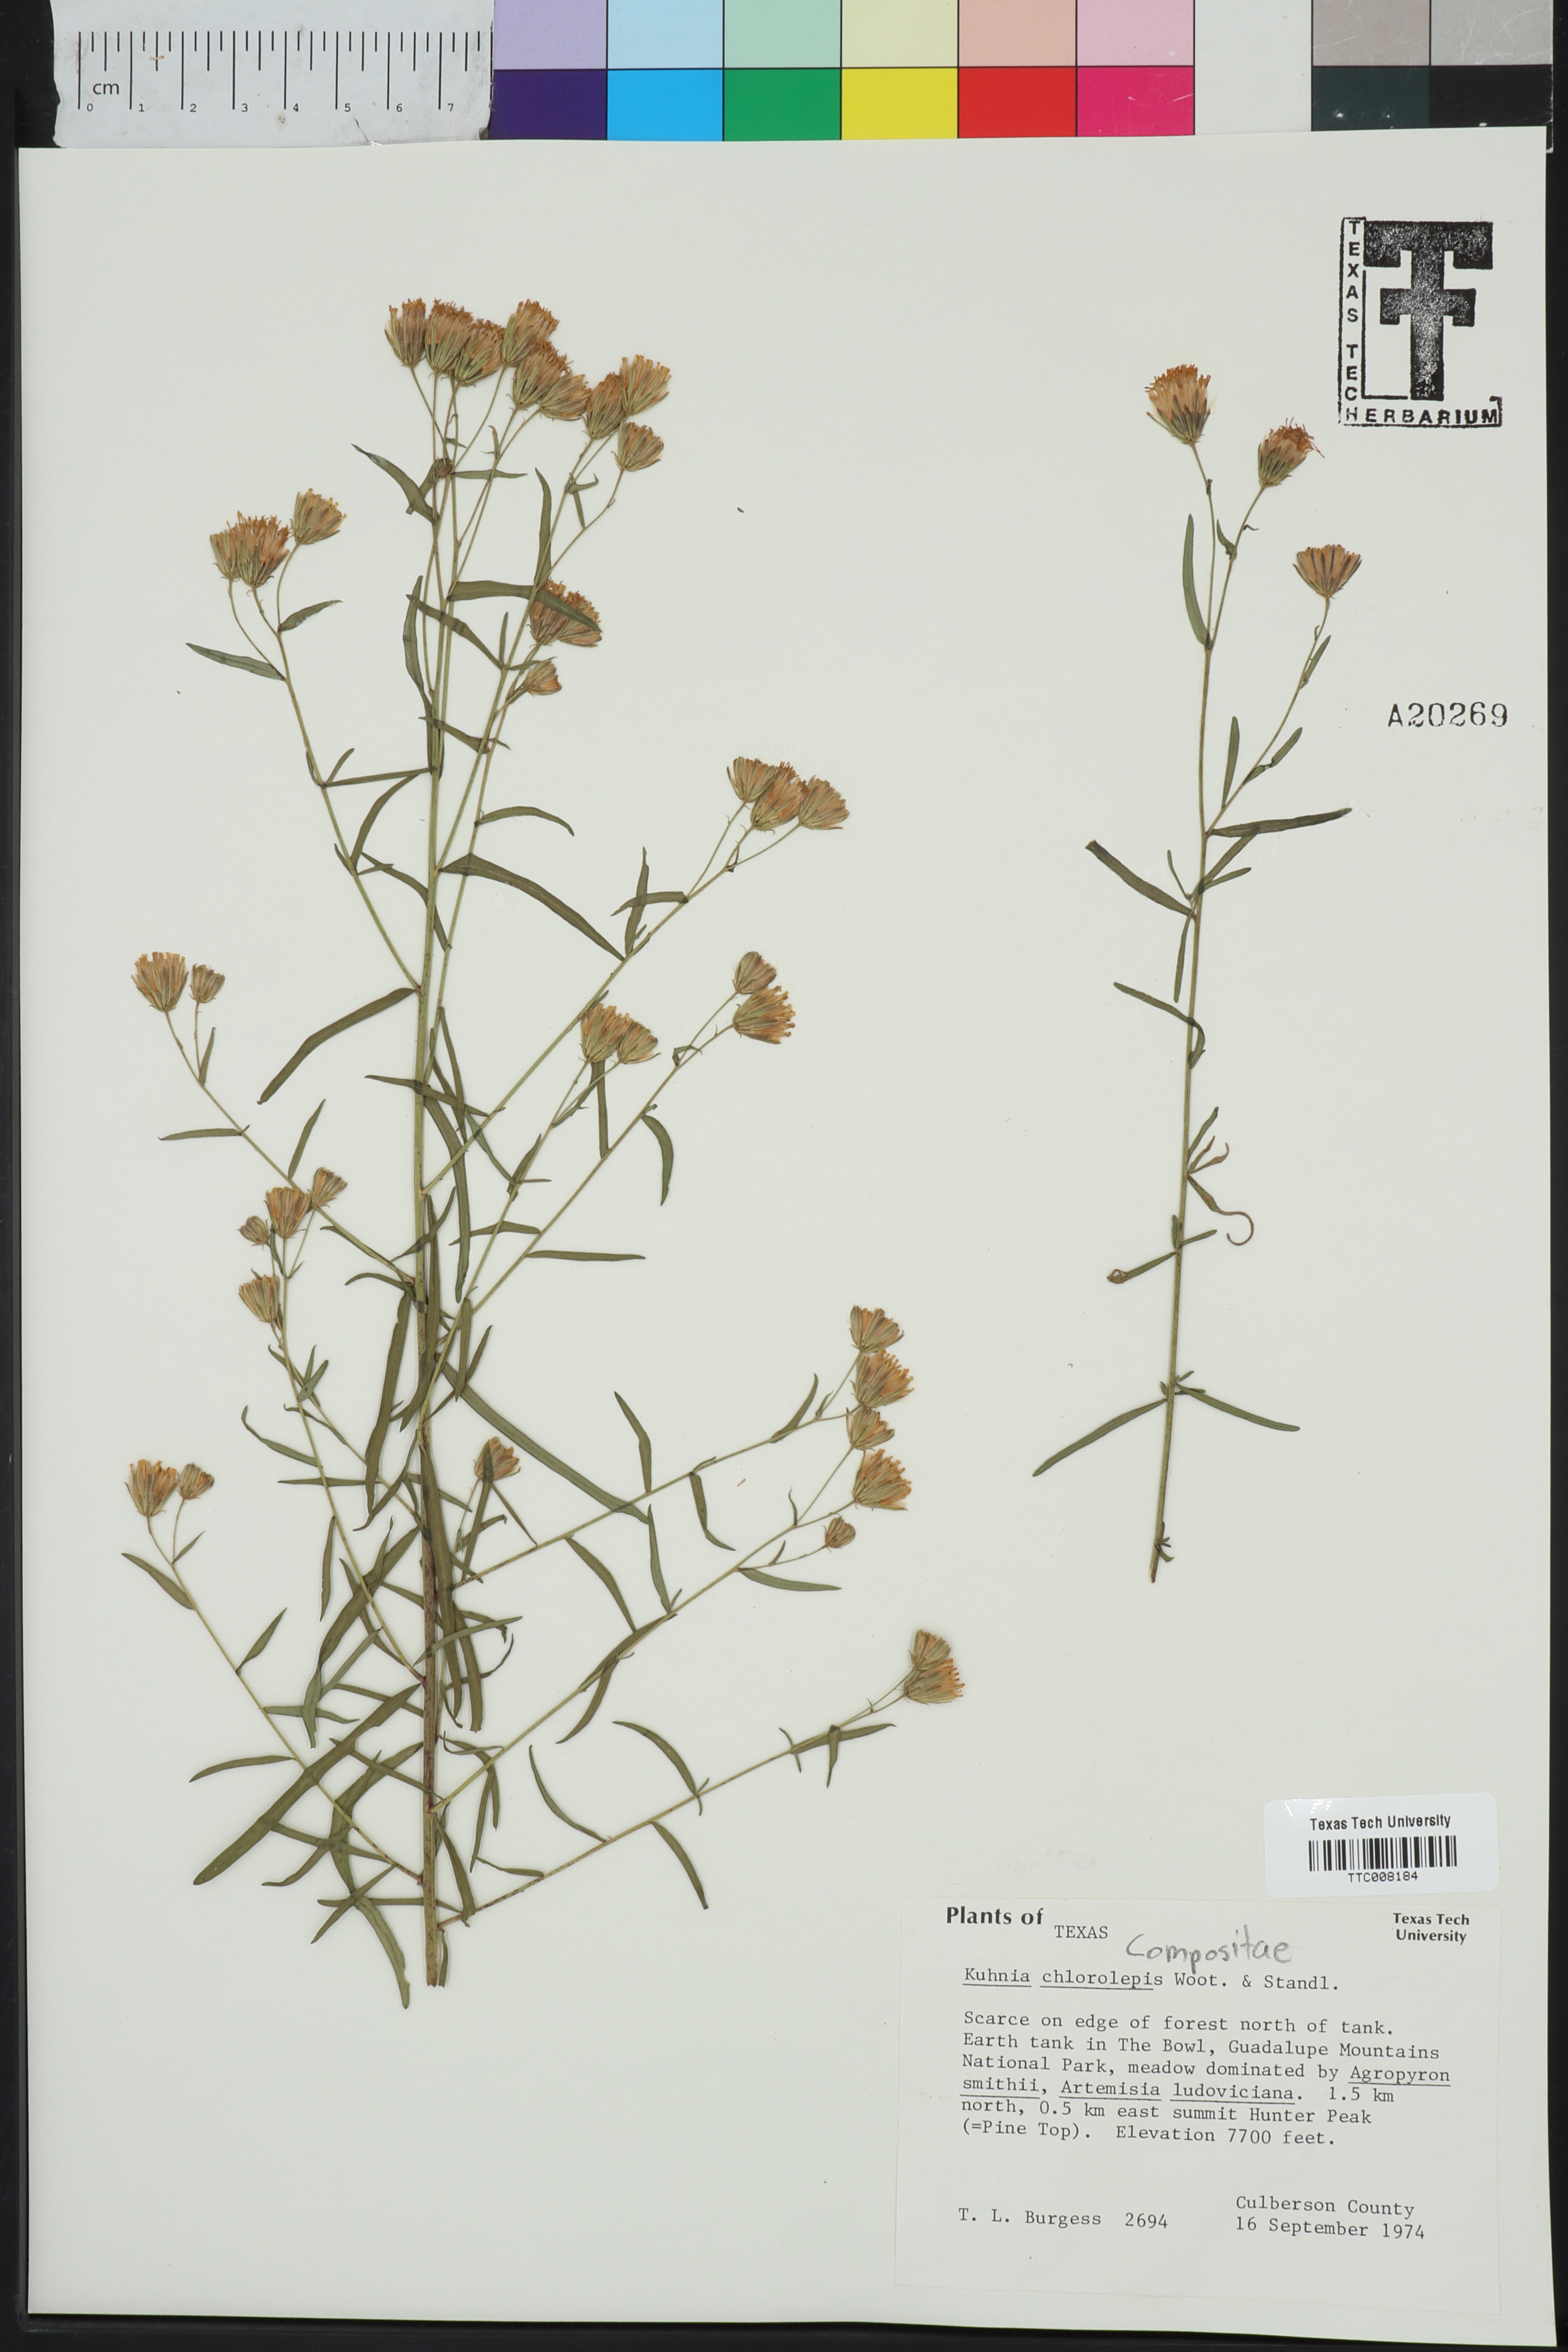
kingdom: Plantae
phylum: Tracheophyta
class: Magnoliopsida
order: Asterales
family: Asteraceae
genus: Brickellia
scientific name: Brickellia leptophylla
